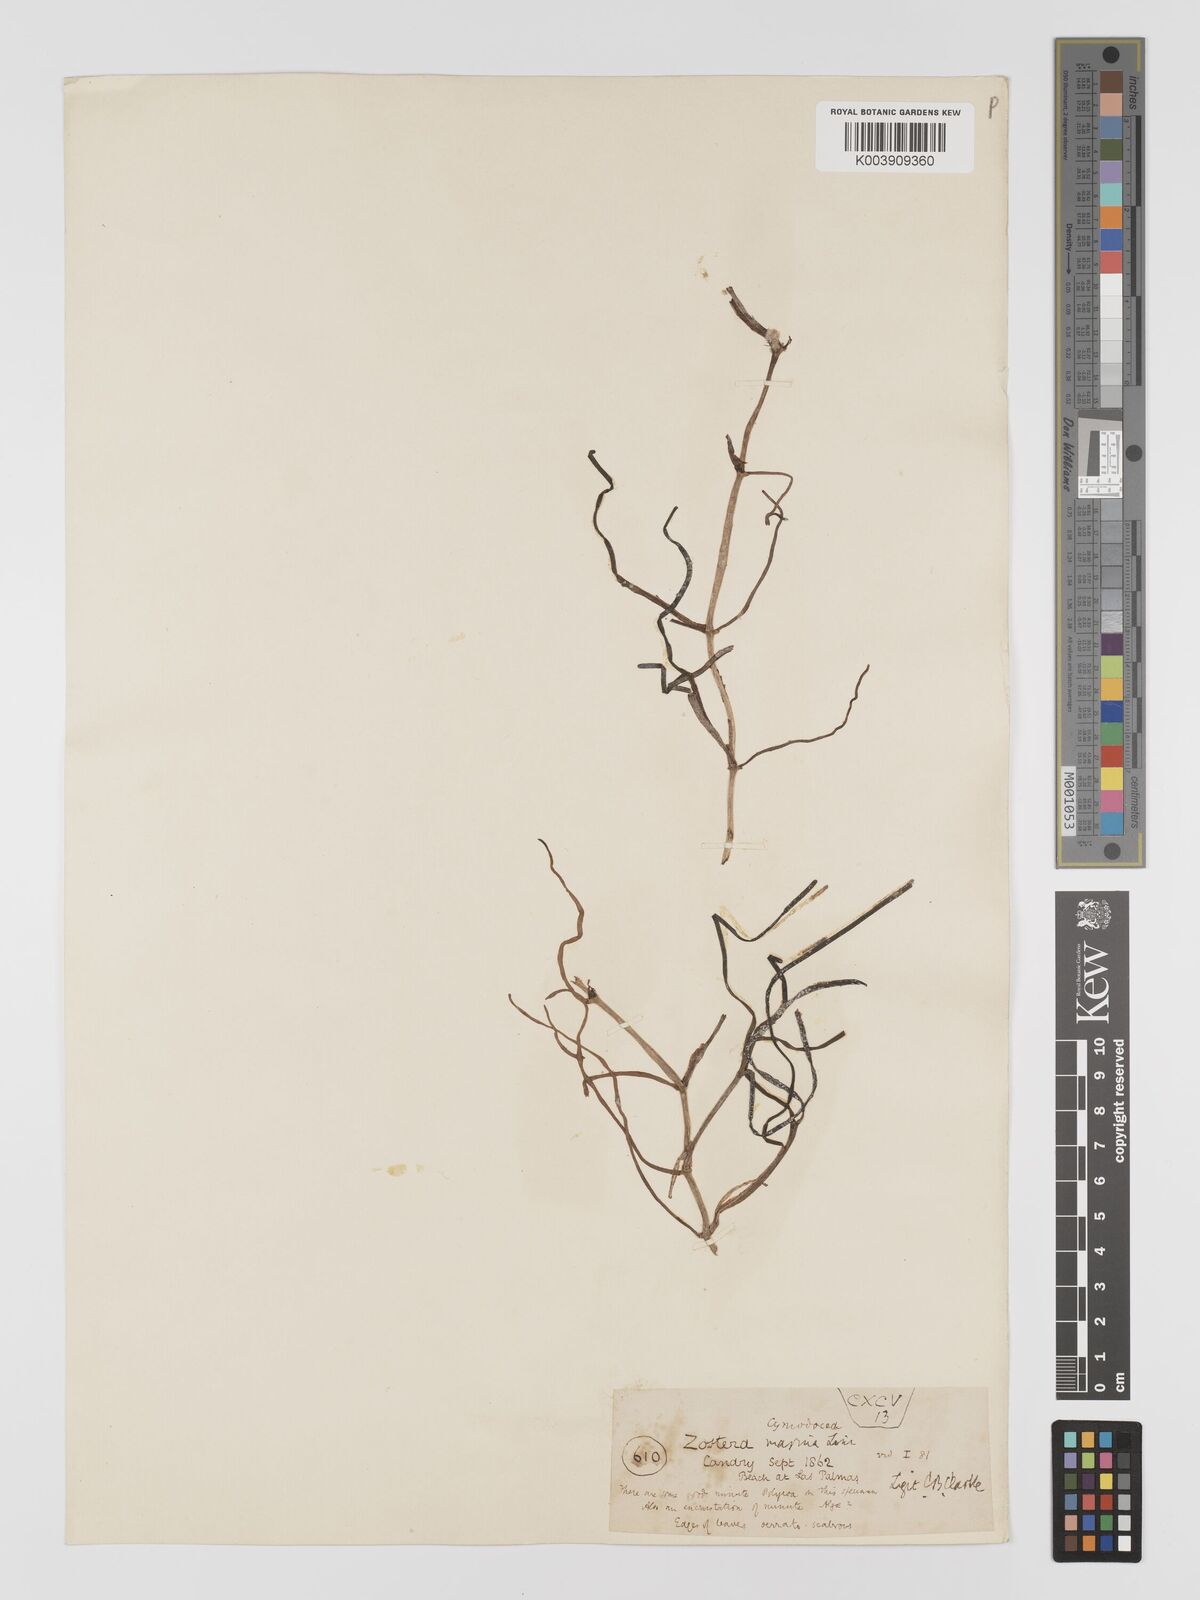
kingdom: Plantae
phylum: Tracheophyta
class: Liliopsida
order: Alismatales
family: Cymodoceaceae
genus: Cymodocea
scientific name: Cymodocea nodosa
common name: Slender seagrass
